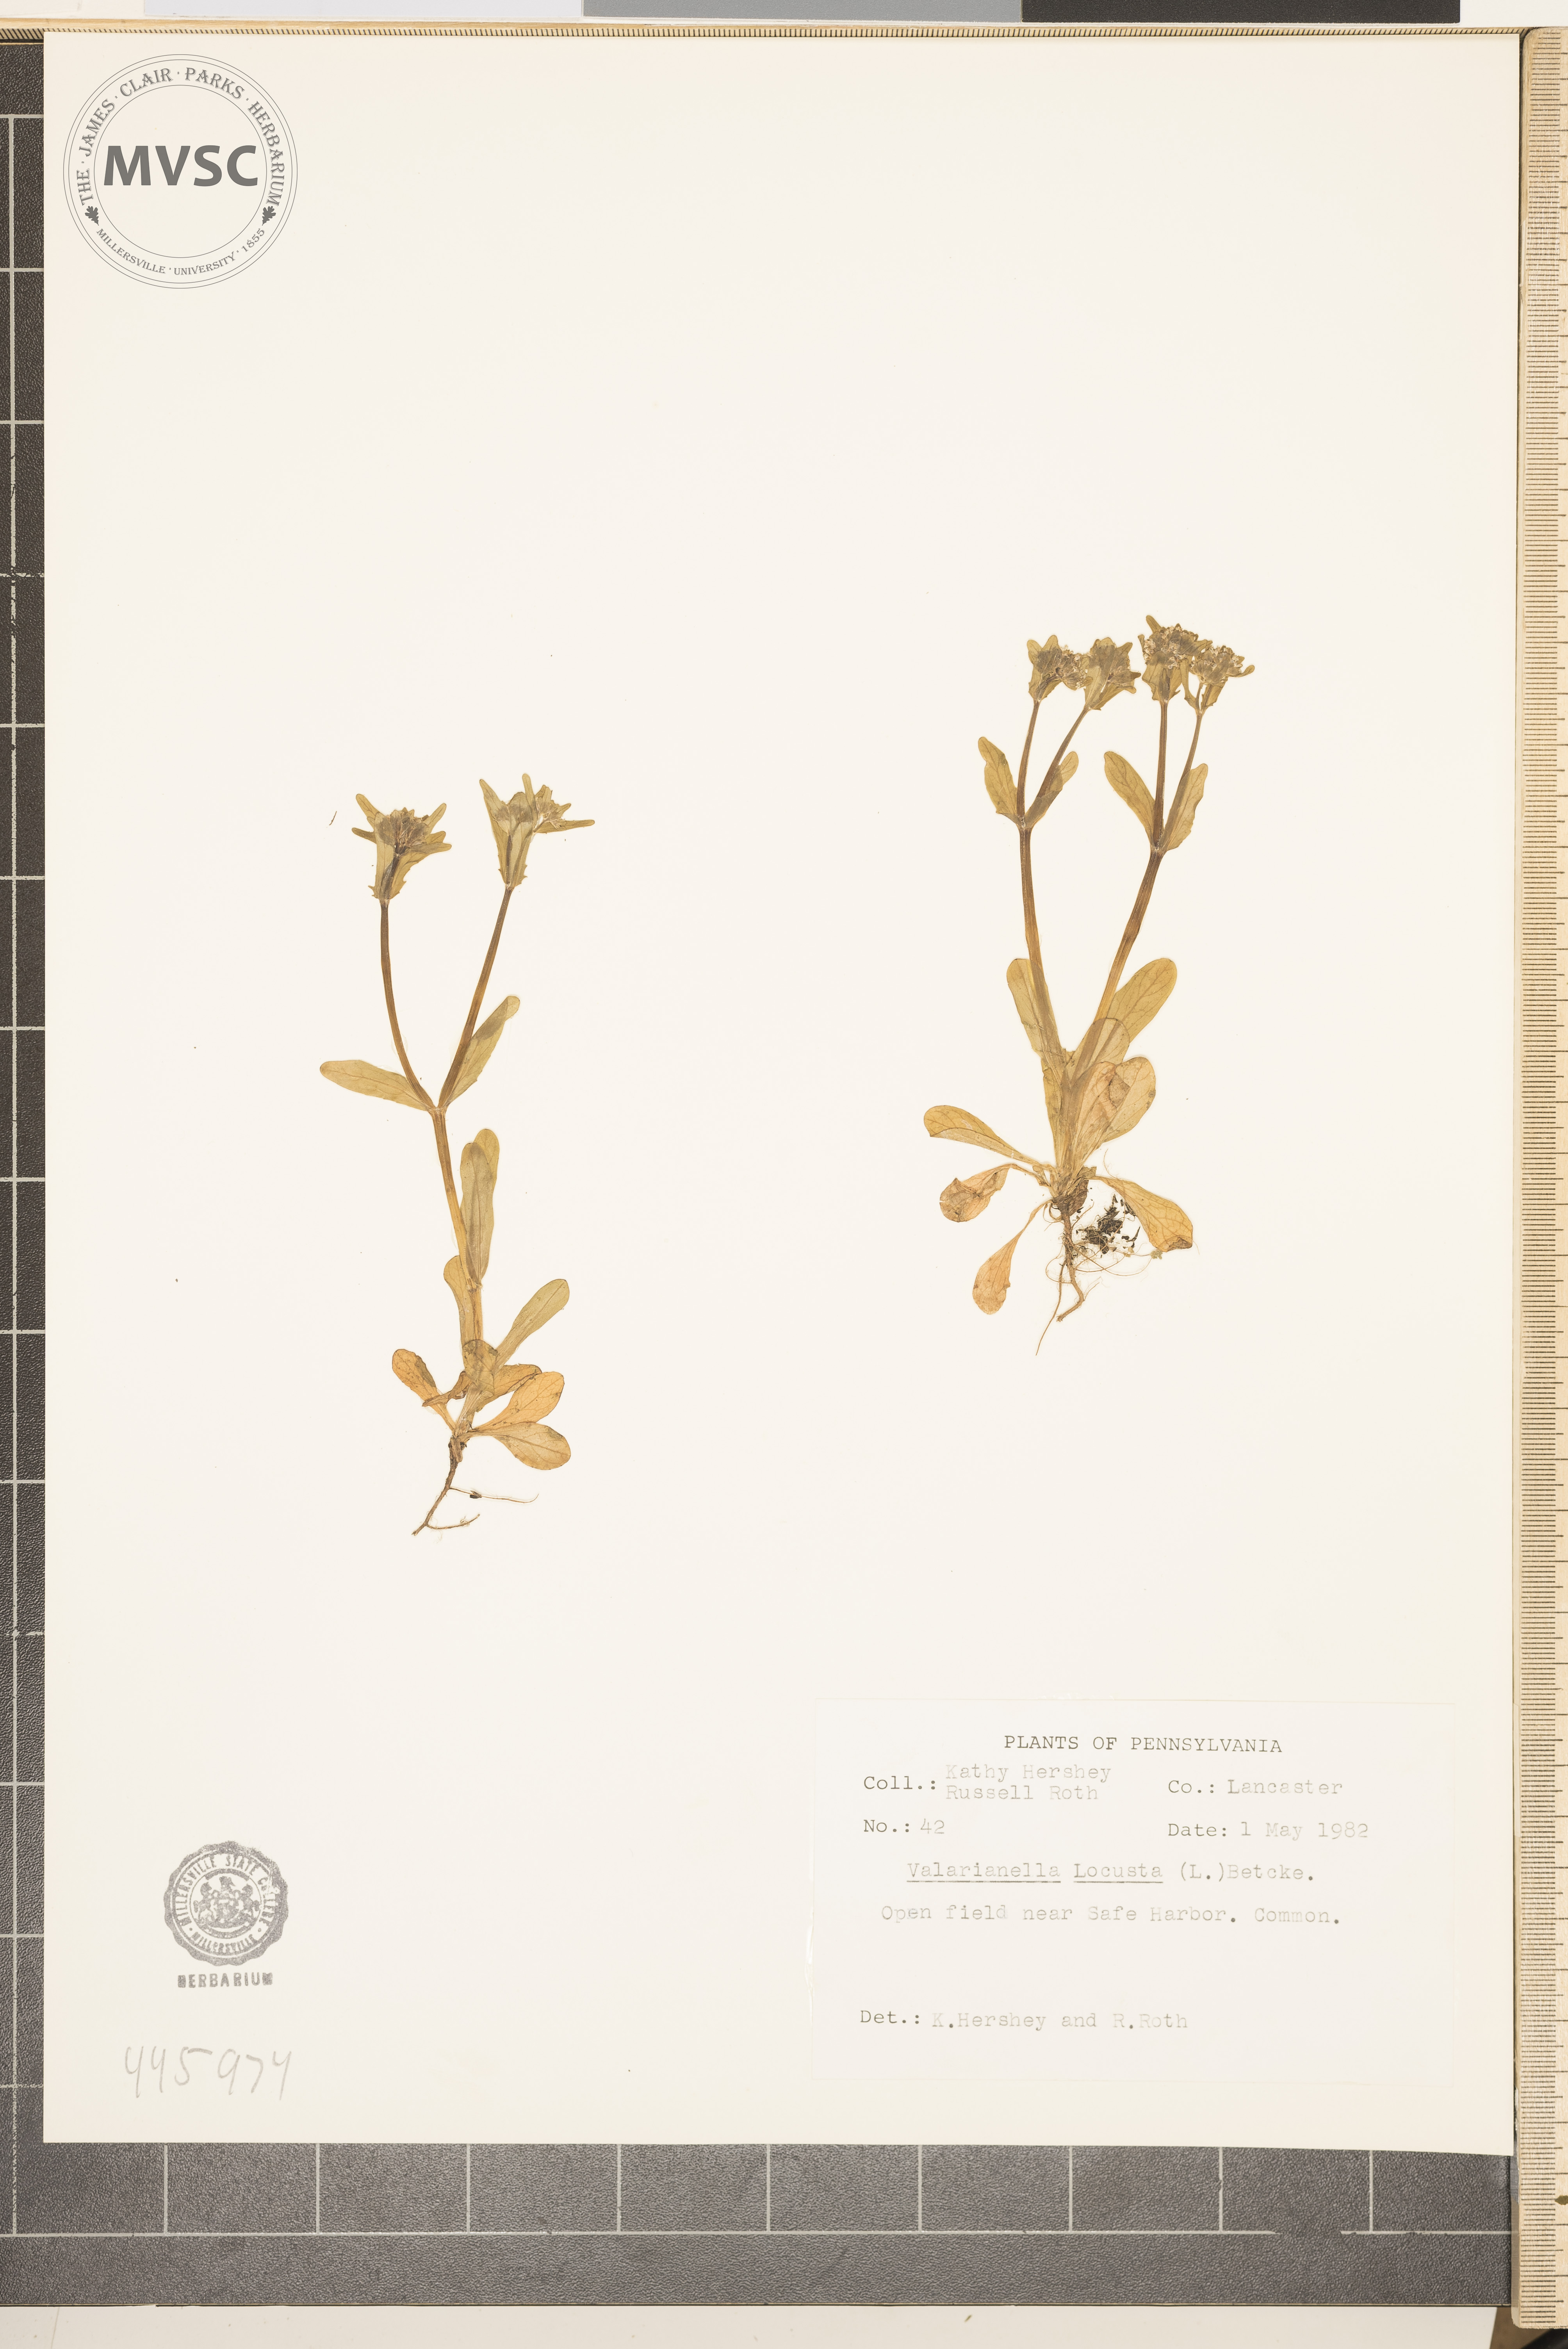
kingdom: Plantae
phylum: Tracheophyta
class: Magnoliopsida
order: Dipsacales
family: Caprifoliaceae
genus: Valerianella
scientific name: Valerianella locusta
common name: Common cornsalad
